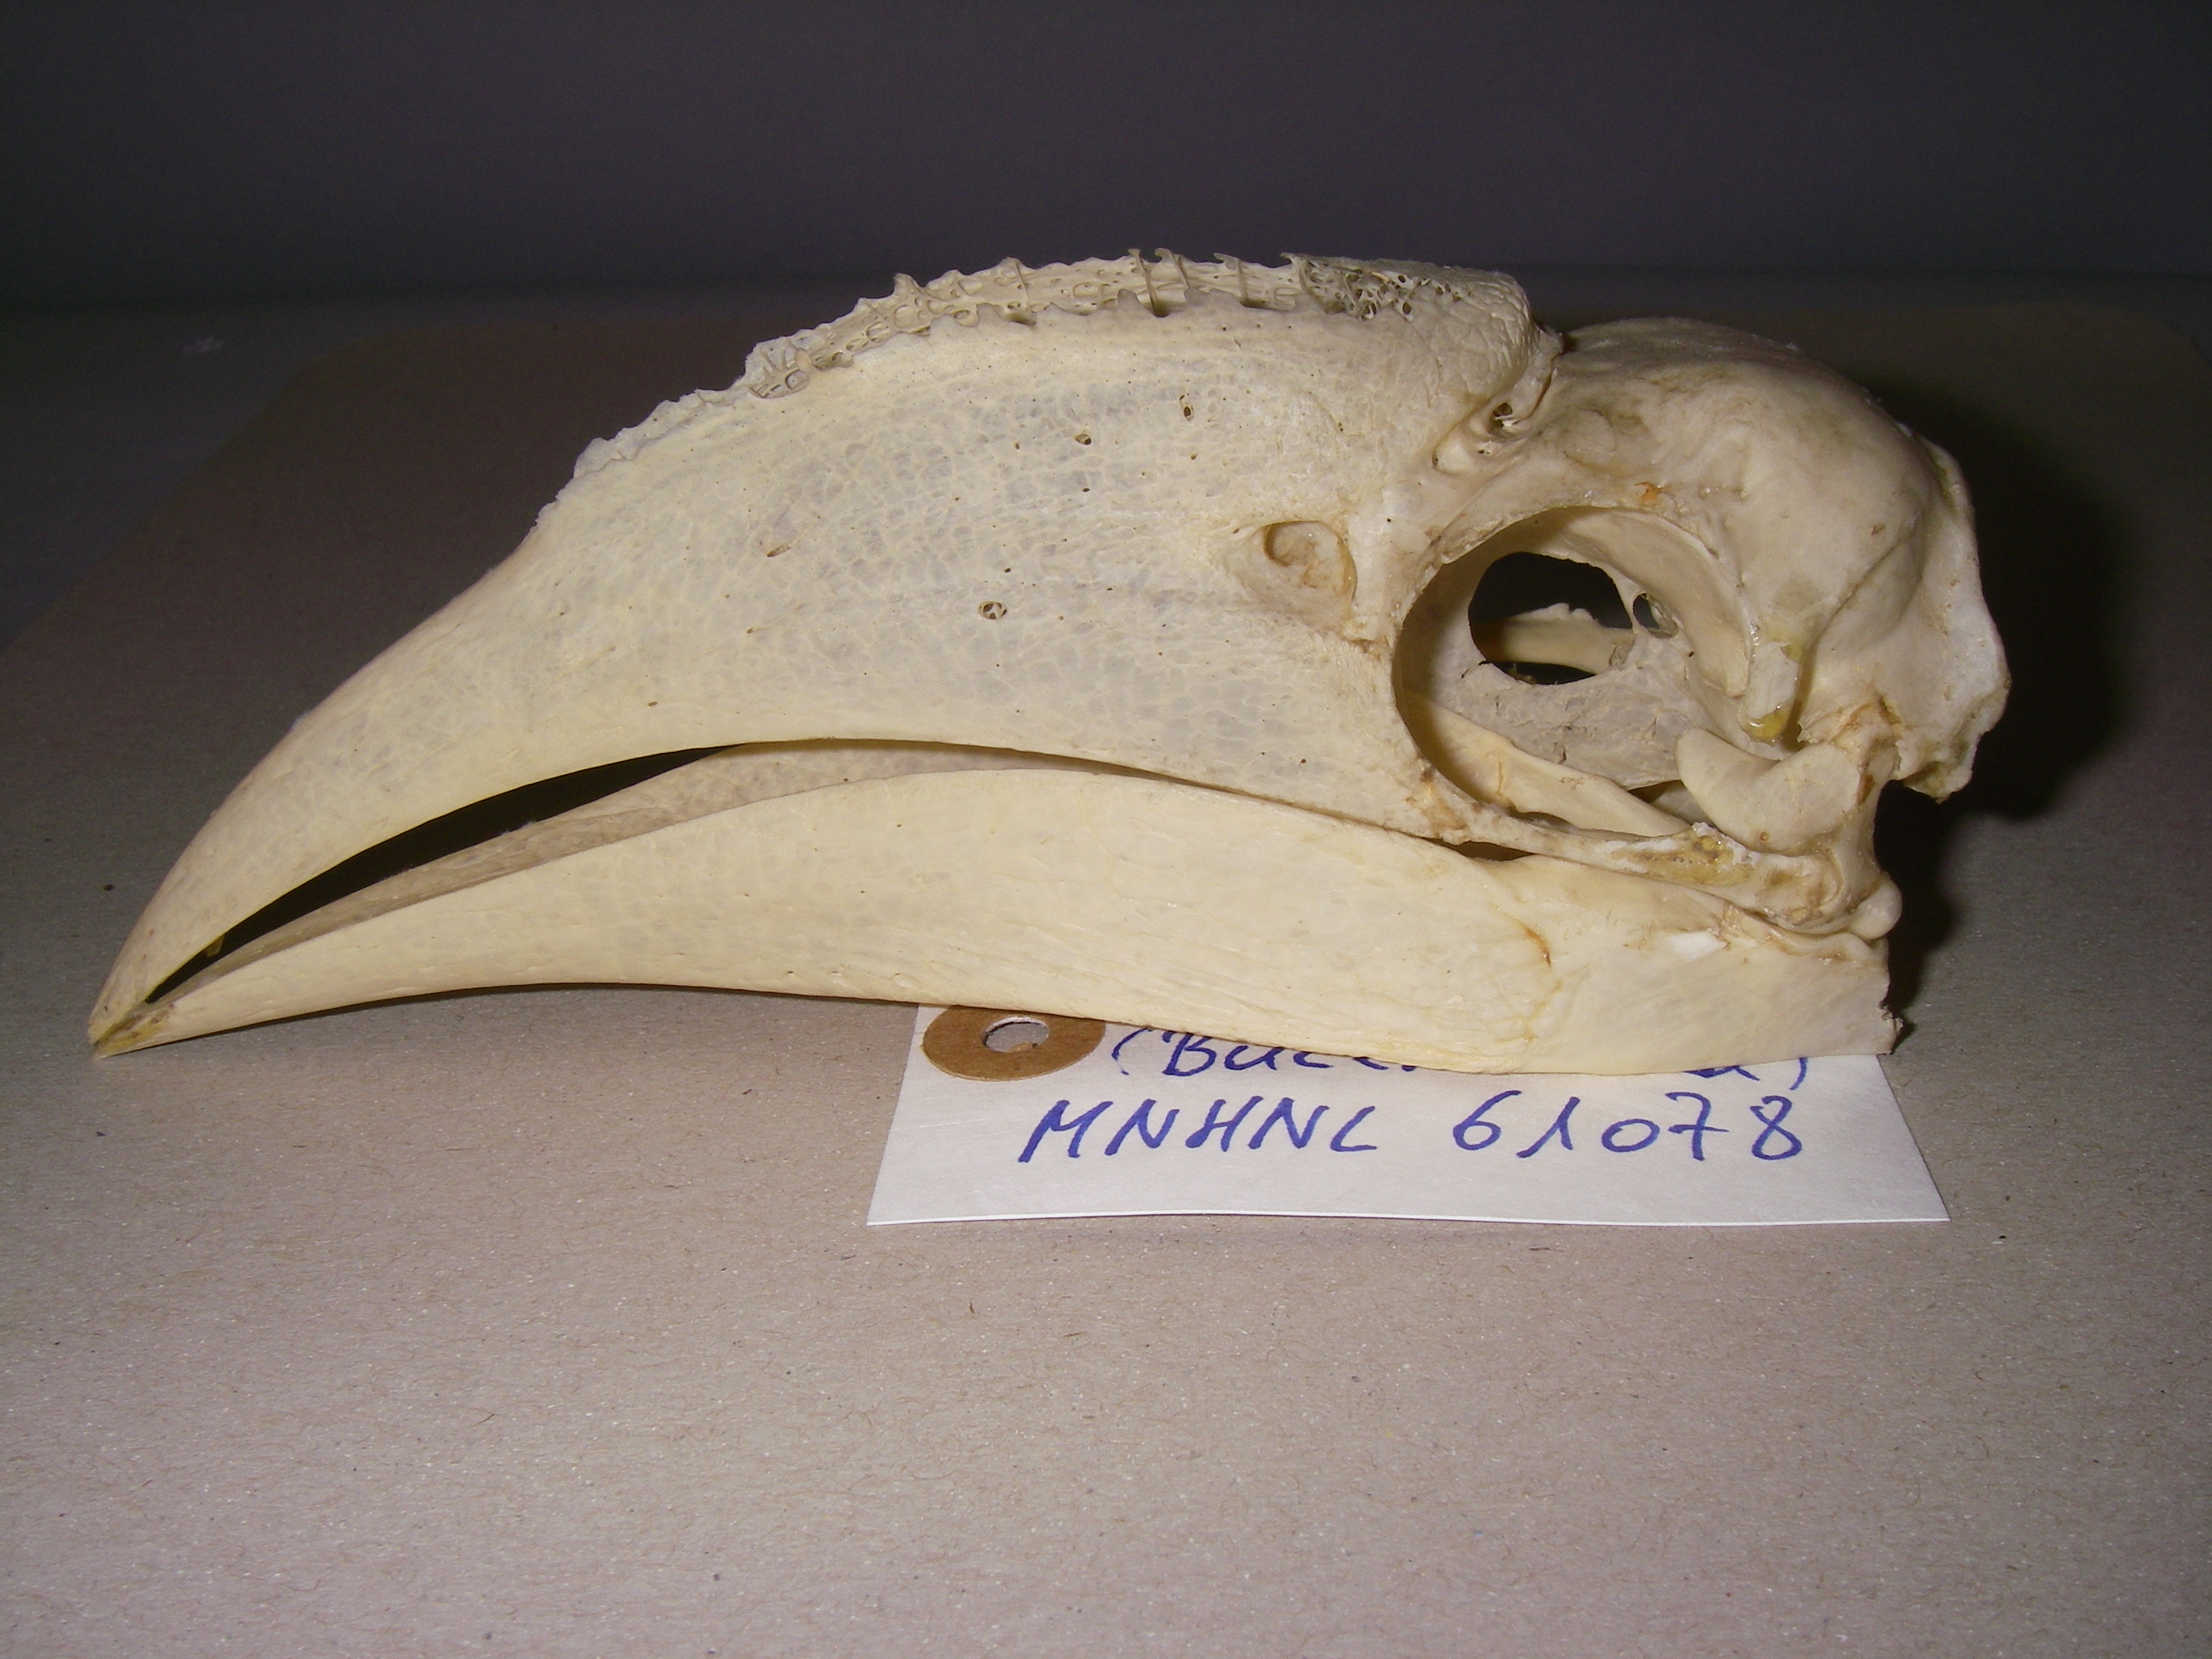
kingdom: Animalia
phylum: Chordata
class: Aves
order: Bucerotiformes
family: Bucerotidae
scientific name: Bucerotidae
